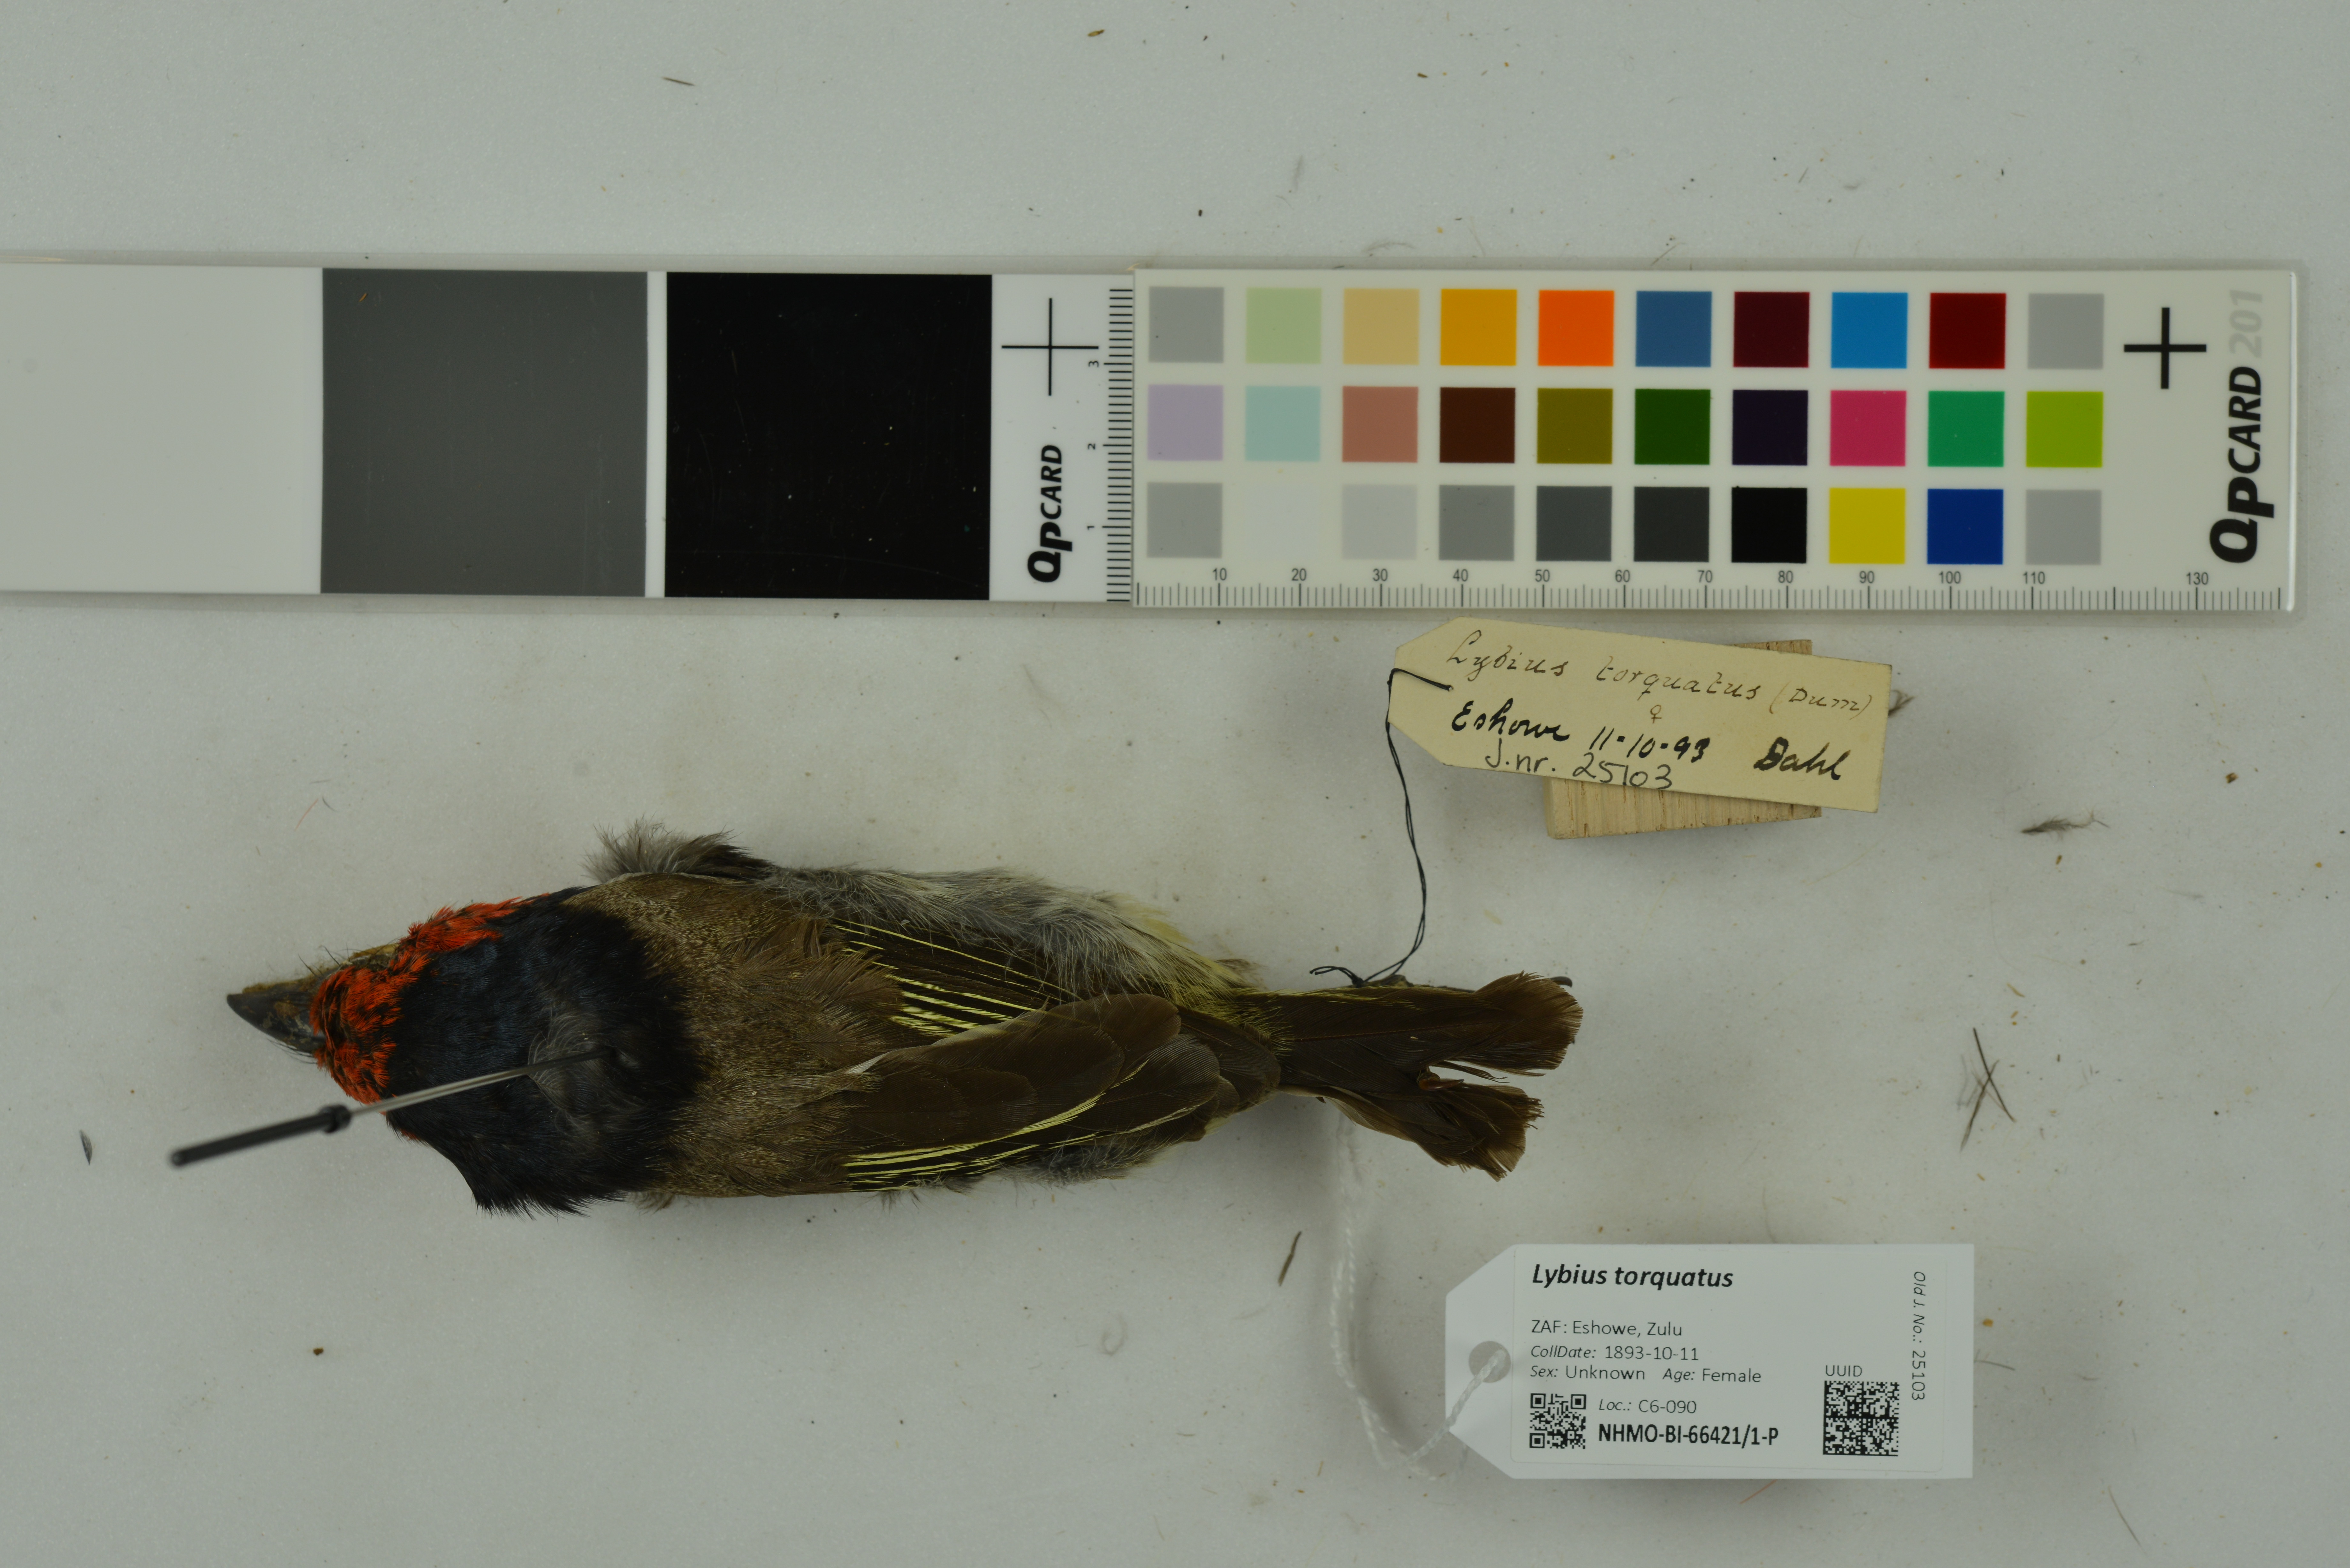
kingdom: Animalia
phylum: Chordata
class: Aves
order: Piciformes
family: Lybiidae
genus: Lybius
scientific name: Lybius torquatus
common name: Black-collared barbet
